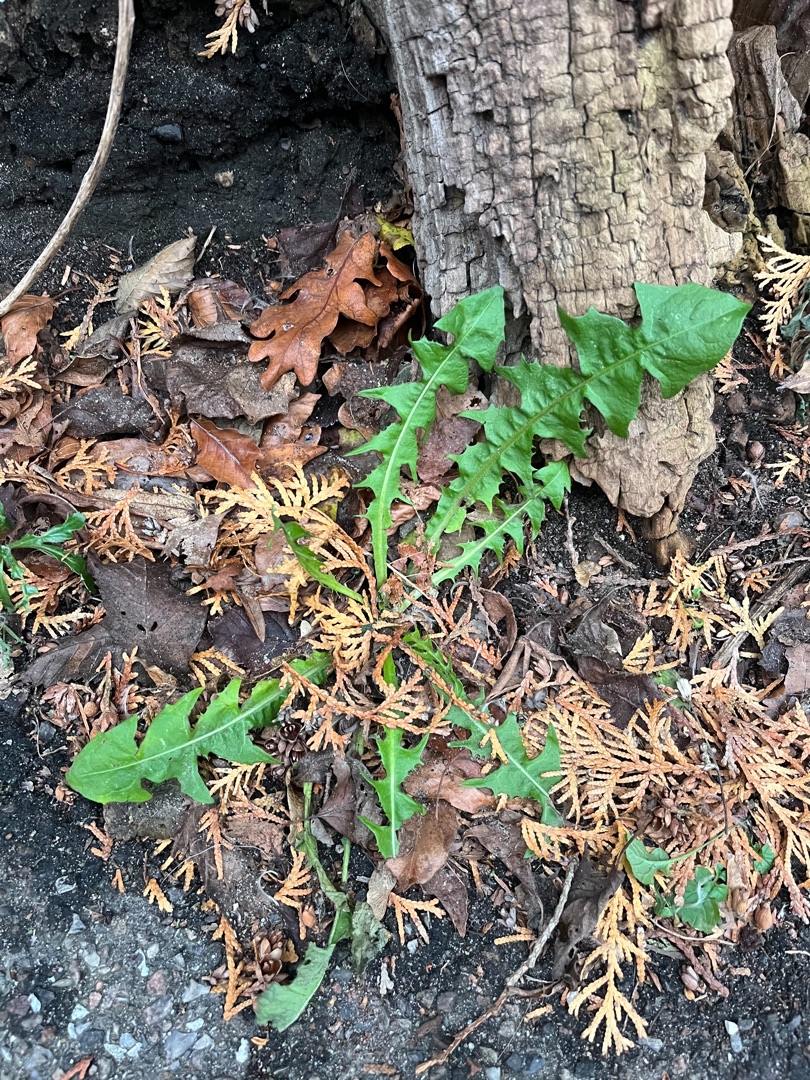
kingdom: Plantae
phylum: Tracheophyta
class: Magnoliopsida
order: Asterales
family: Asteraceae
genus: Taraxacum
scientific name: Taraxacum
